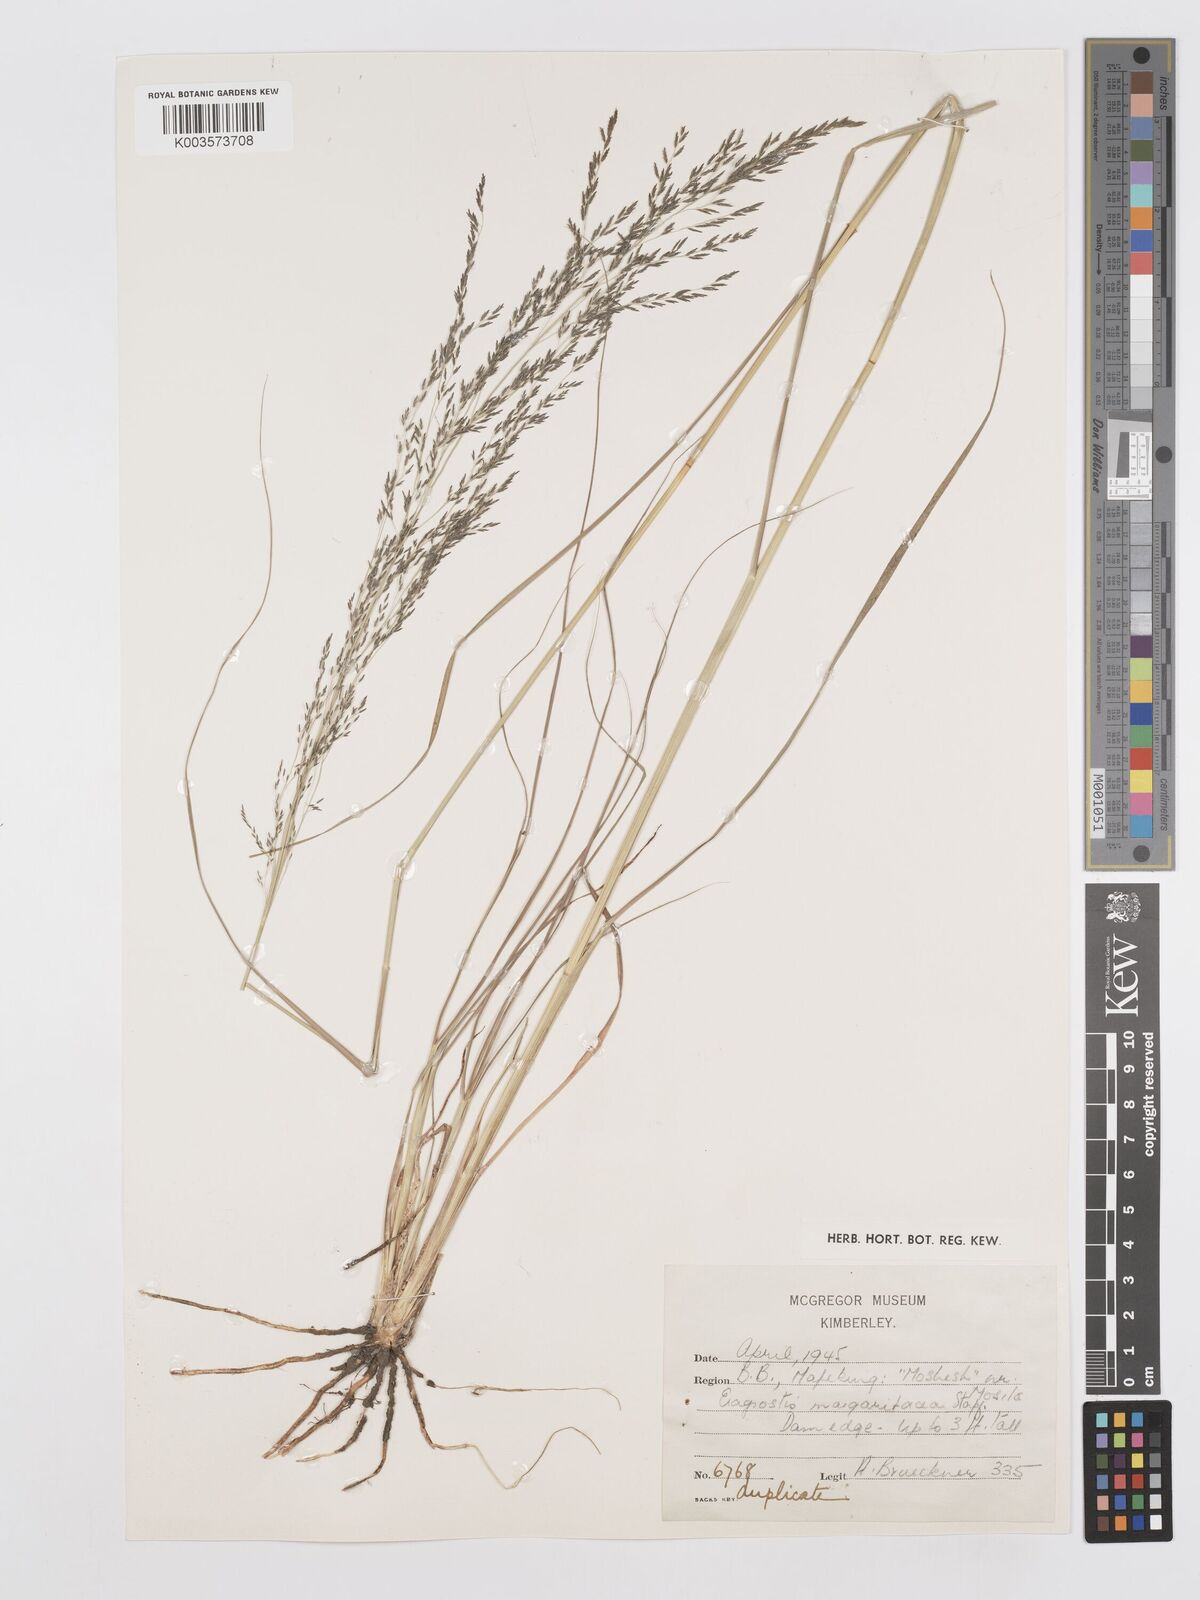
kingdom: Plantae
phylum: Tracheophyta
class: Liliopsida
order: Poales
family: Poaceae
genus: Eragrostis
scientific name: Eragrostis rotifer
